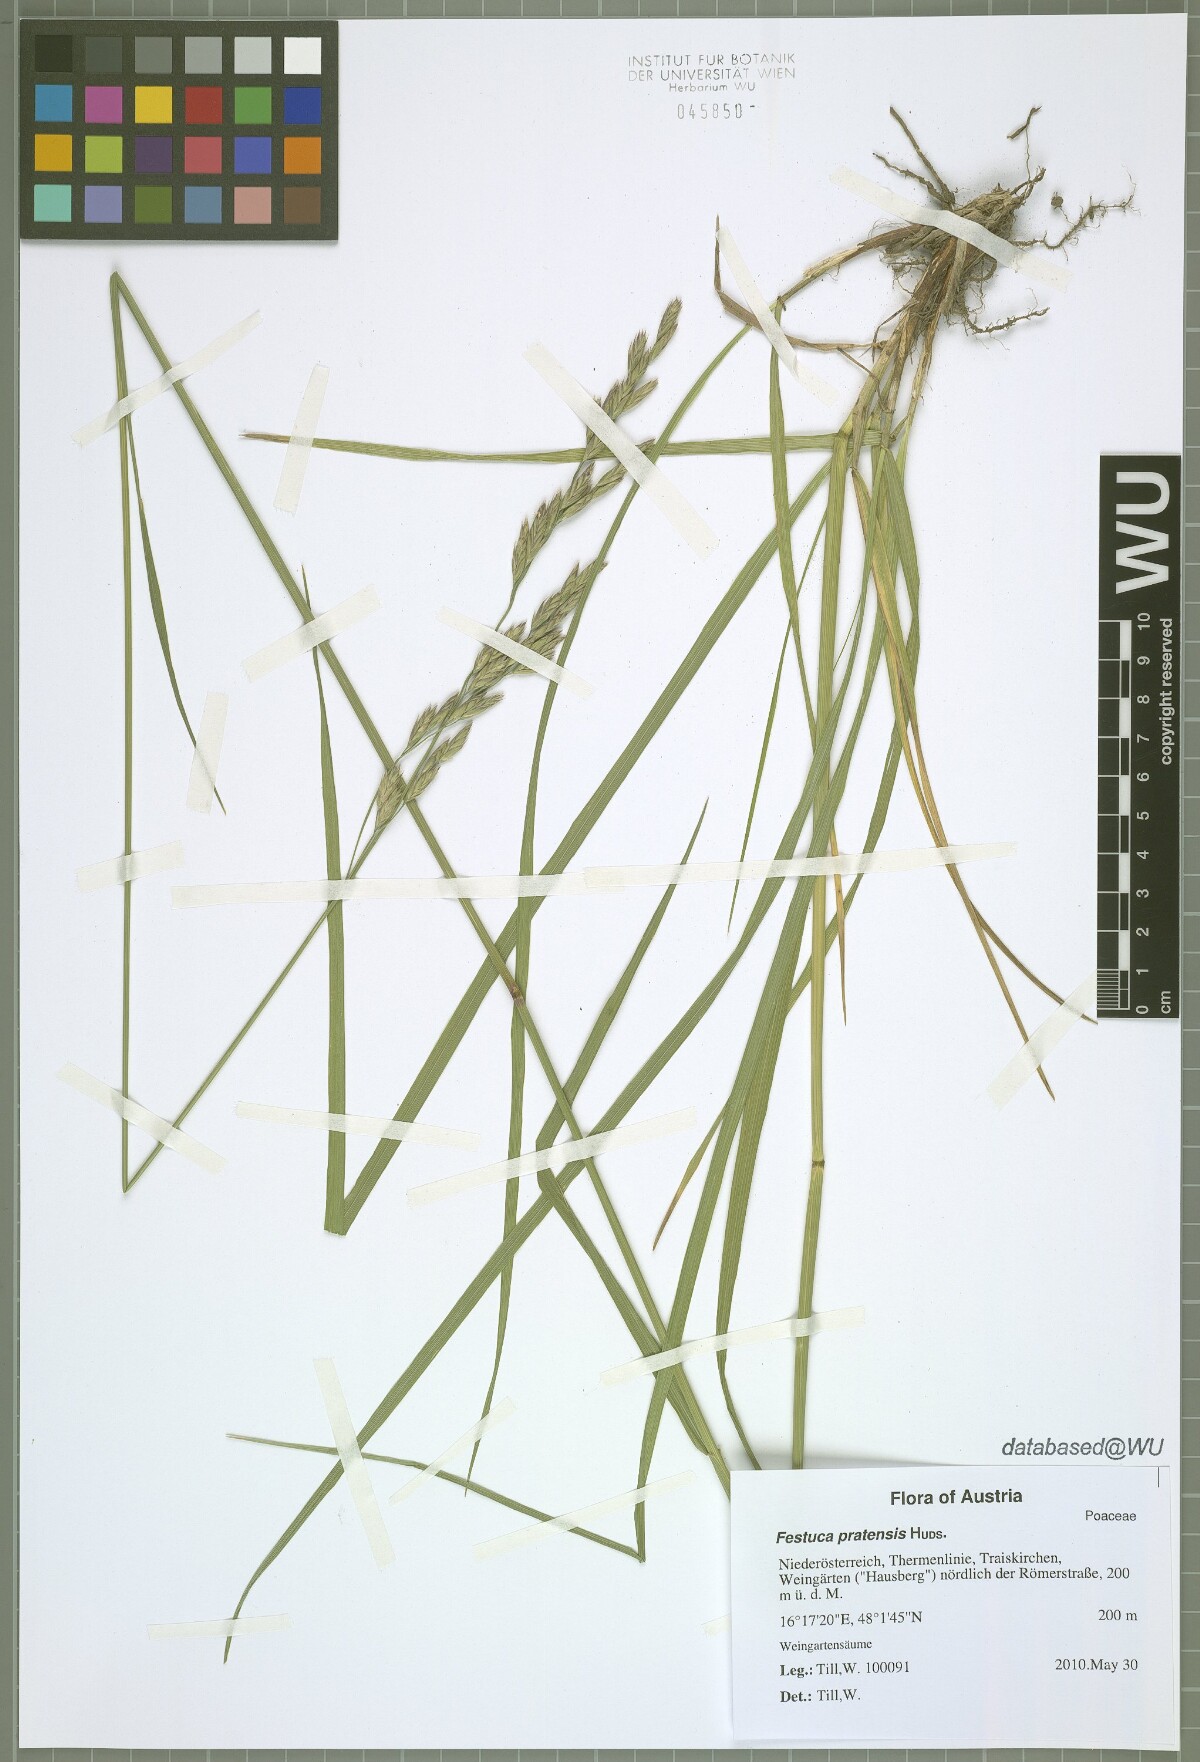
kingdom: Plantae
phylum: Tracheophyta
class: Liliopsida
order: Poales
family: Poaceae
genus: Lolium
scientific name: Lolium arundinaceum
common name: Reed fescue
